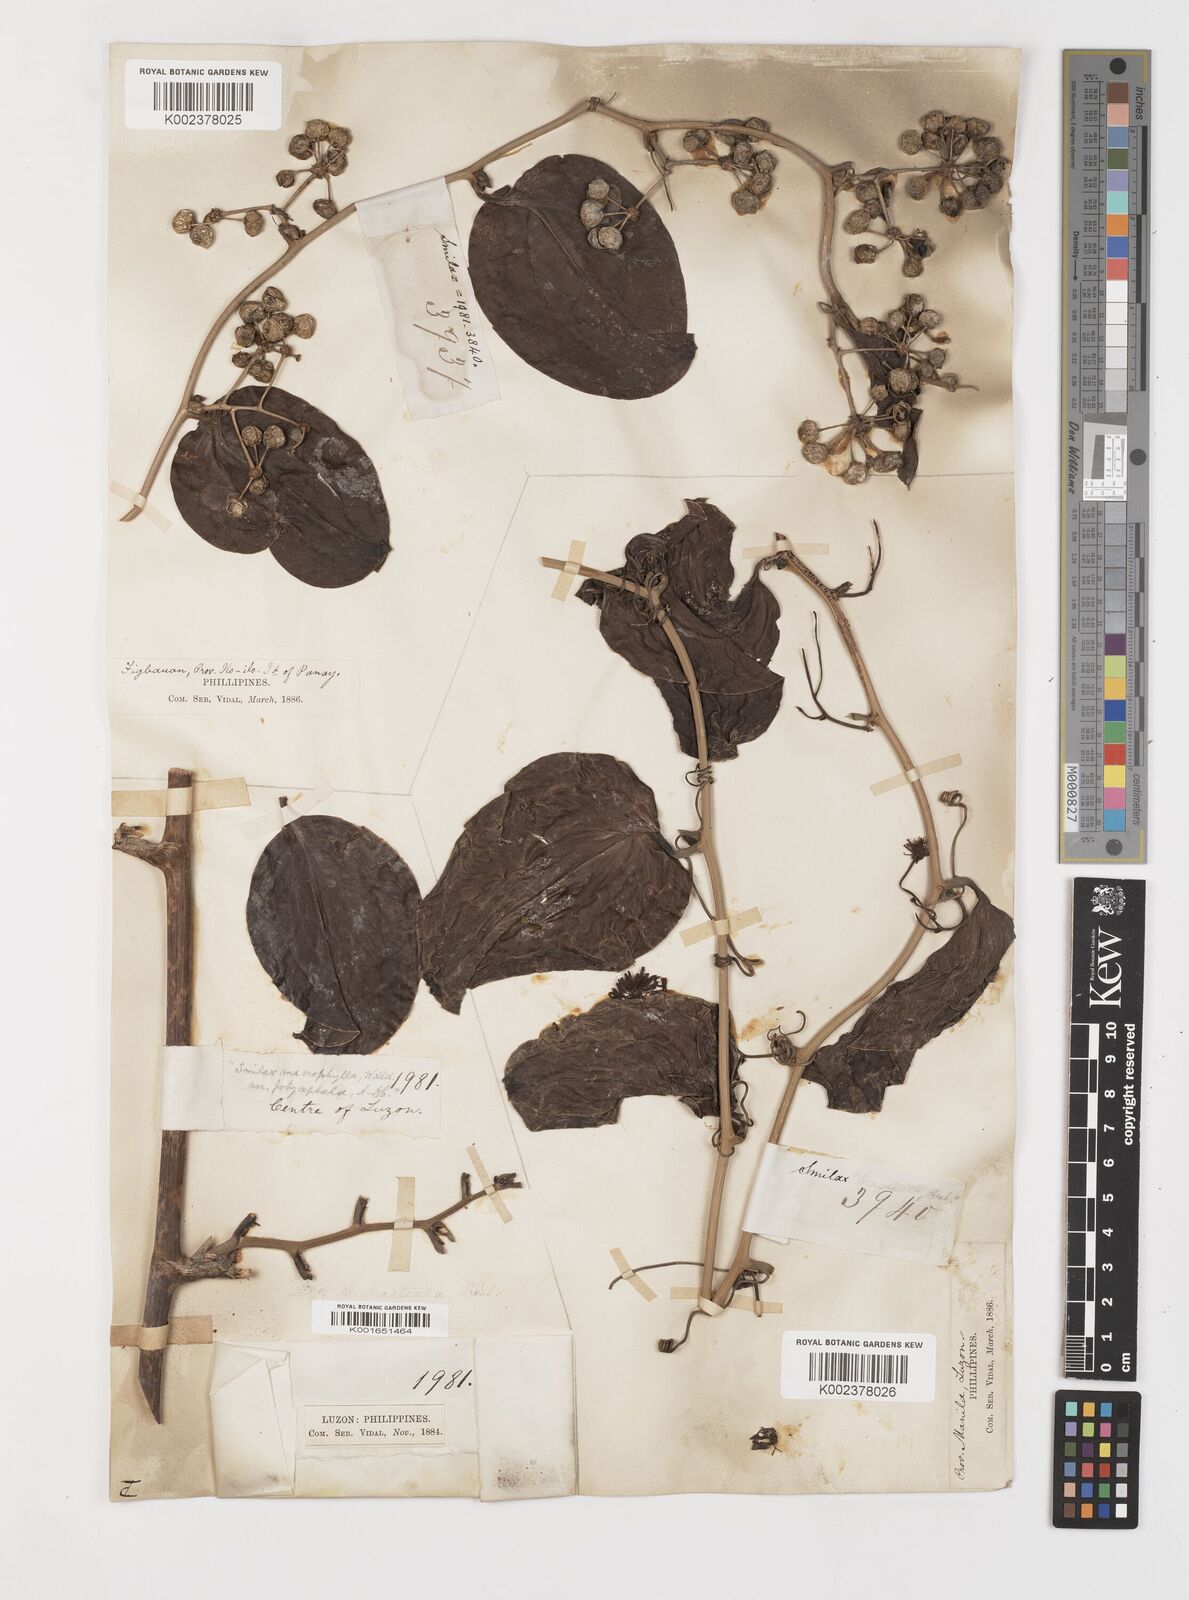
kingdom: Plantae
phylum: Tracheophyta
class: Liliopsida
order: Liliales
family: Smilacaceae
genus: Smilax
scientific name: Smilax bracteata
